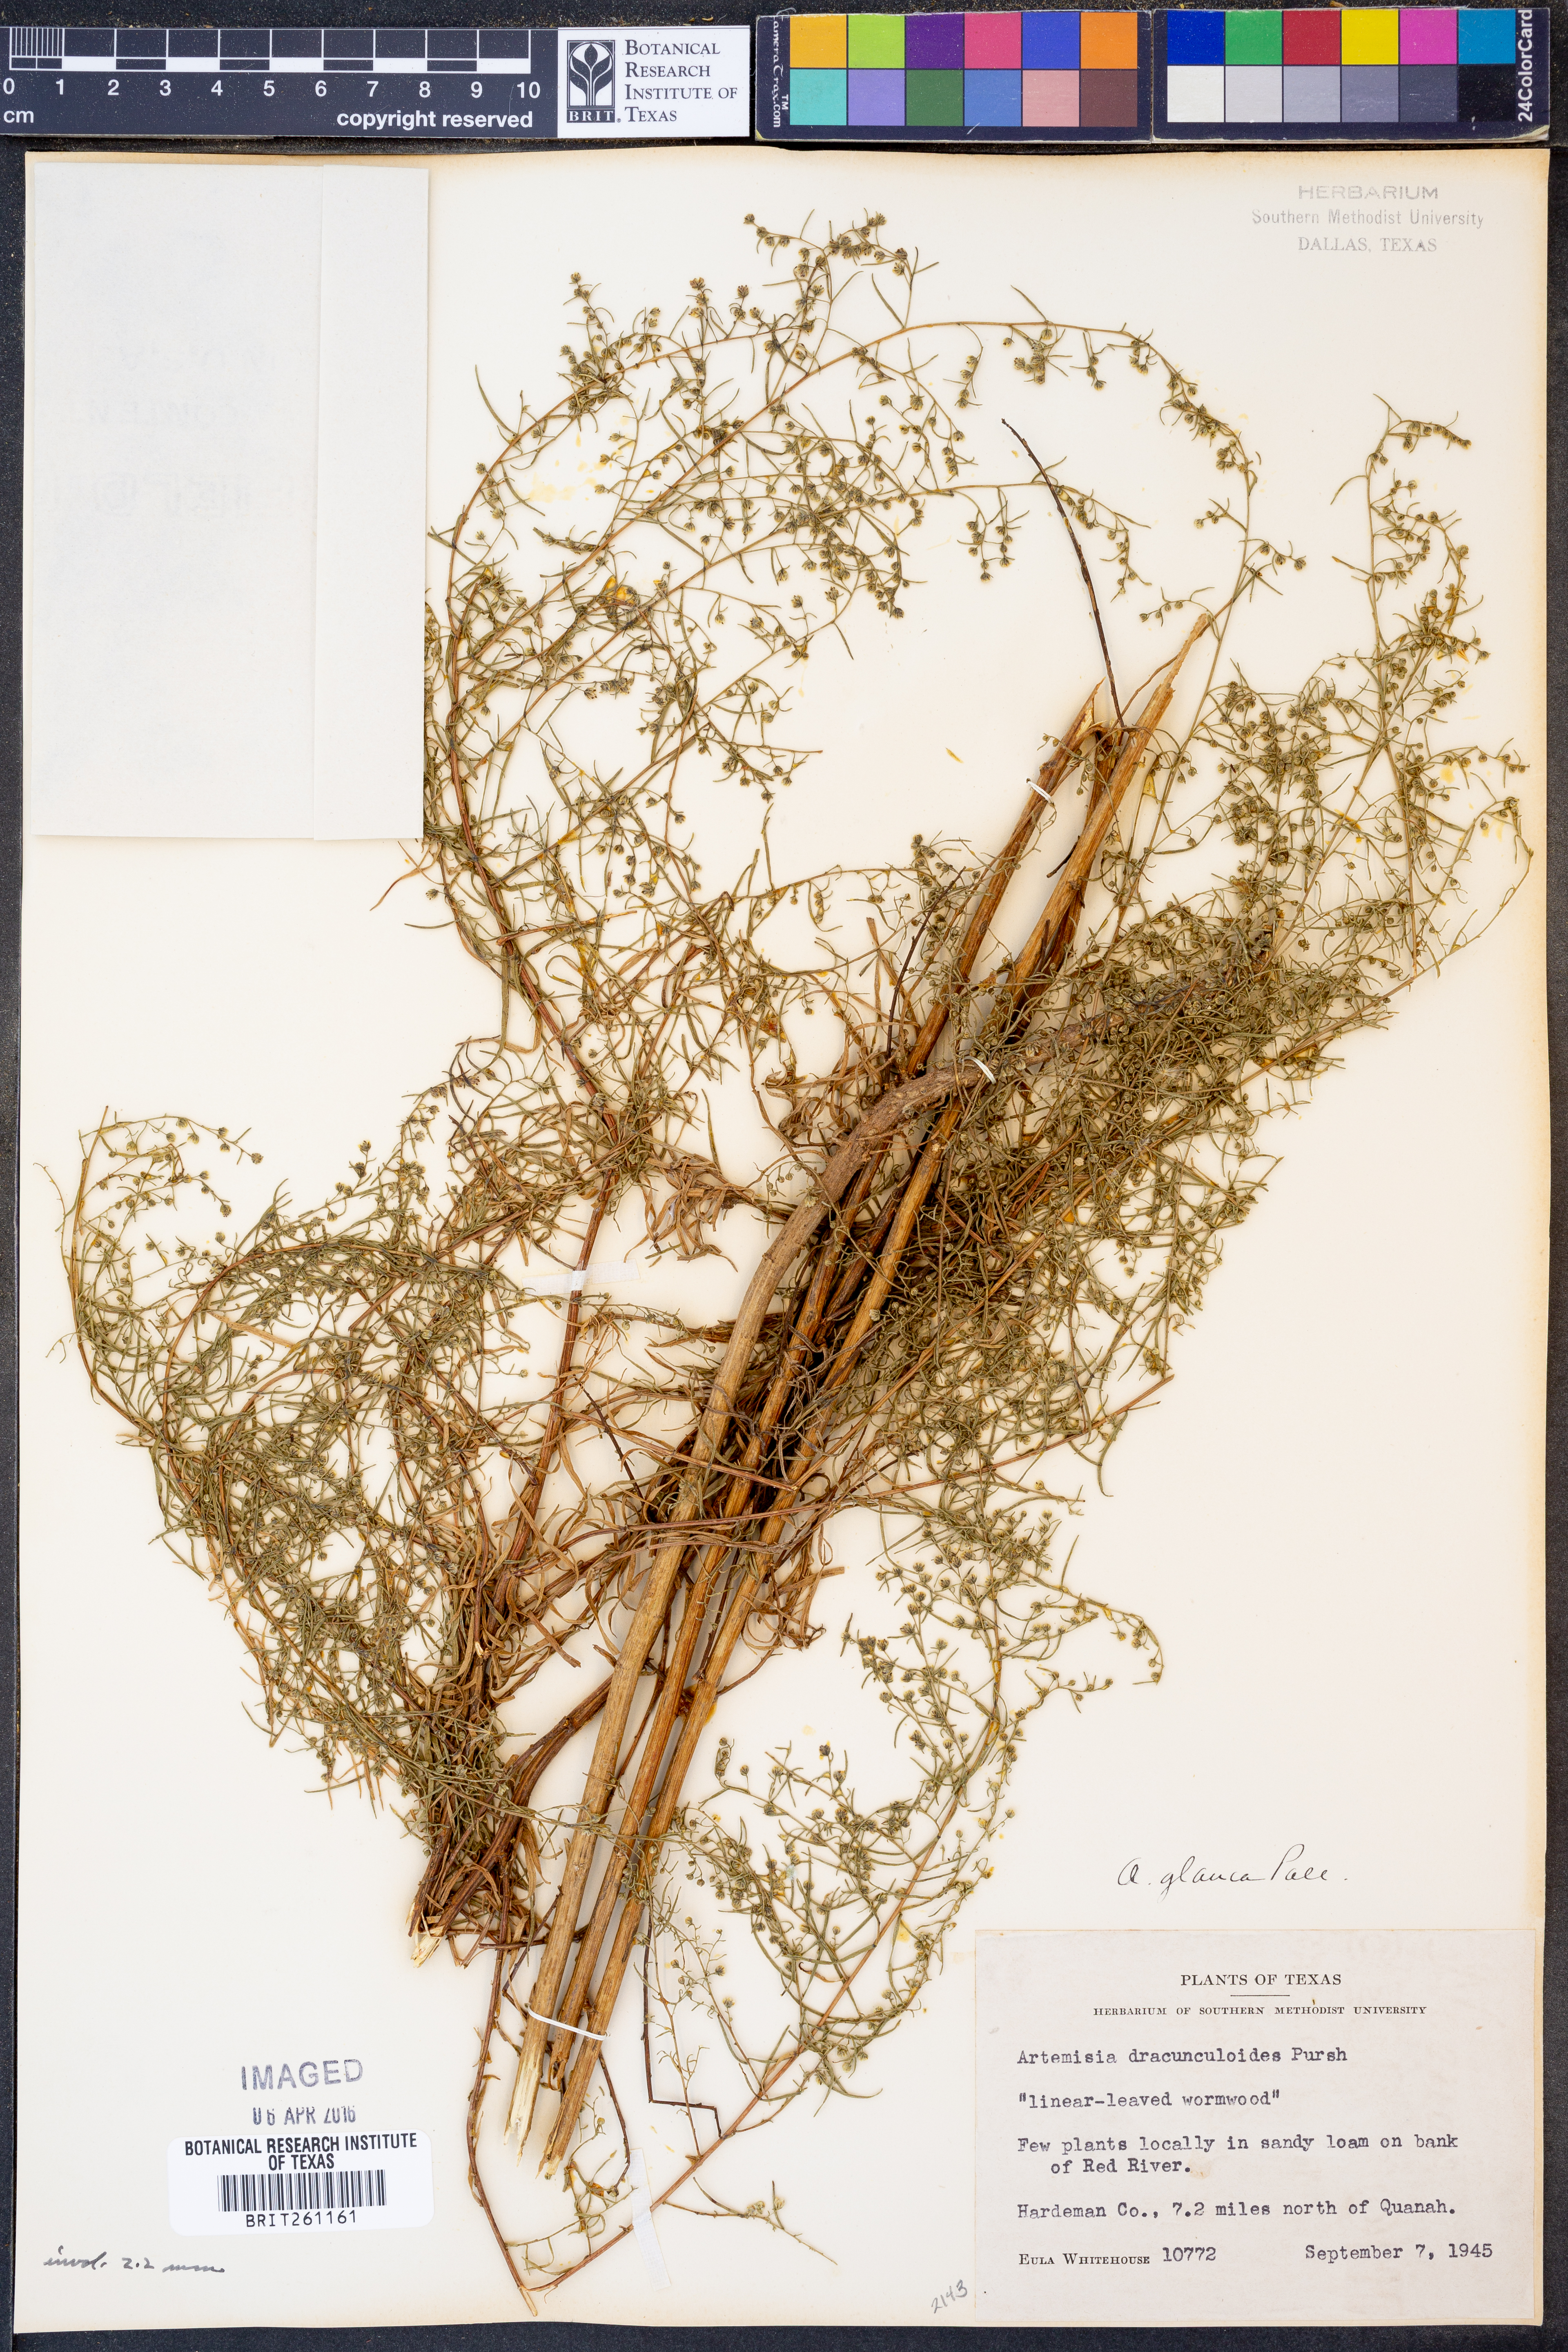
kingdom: Plantae
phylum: Tracheophyta
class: Magnoliopsida
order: Asterales
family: Asteraceae
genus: Artemisia
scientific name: Artemisia glauca
